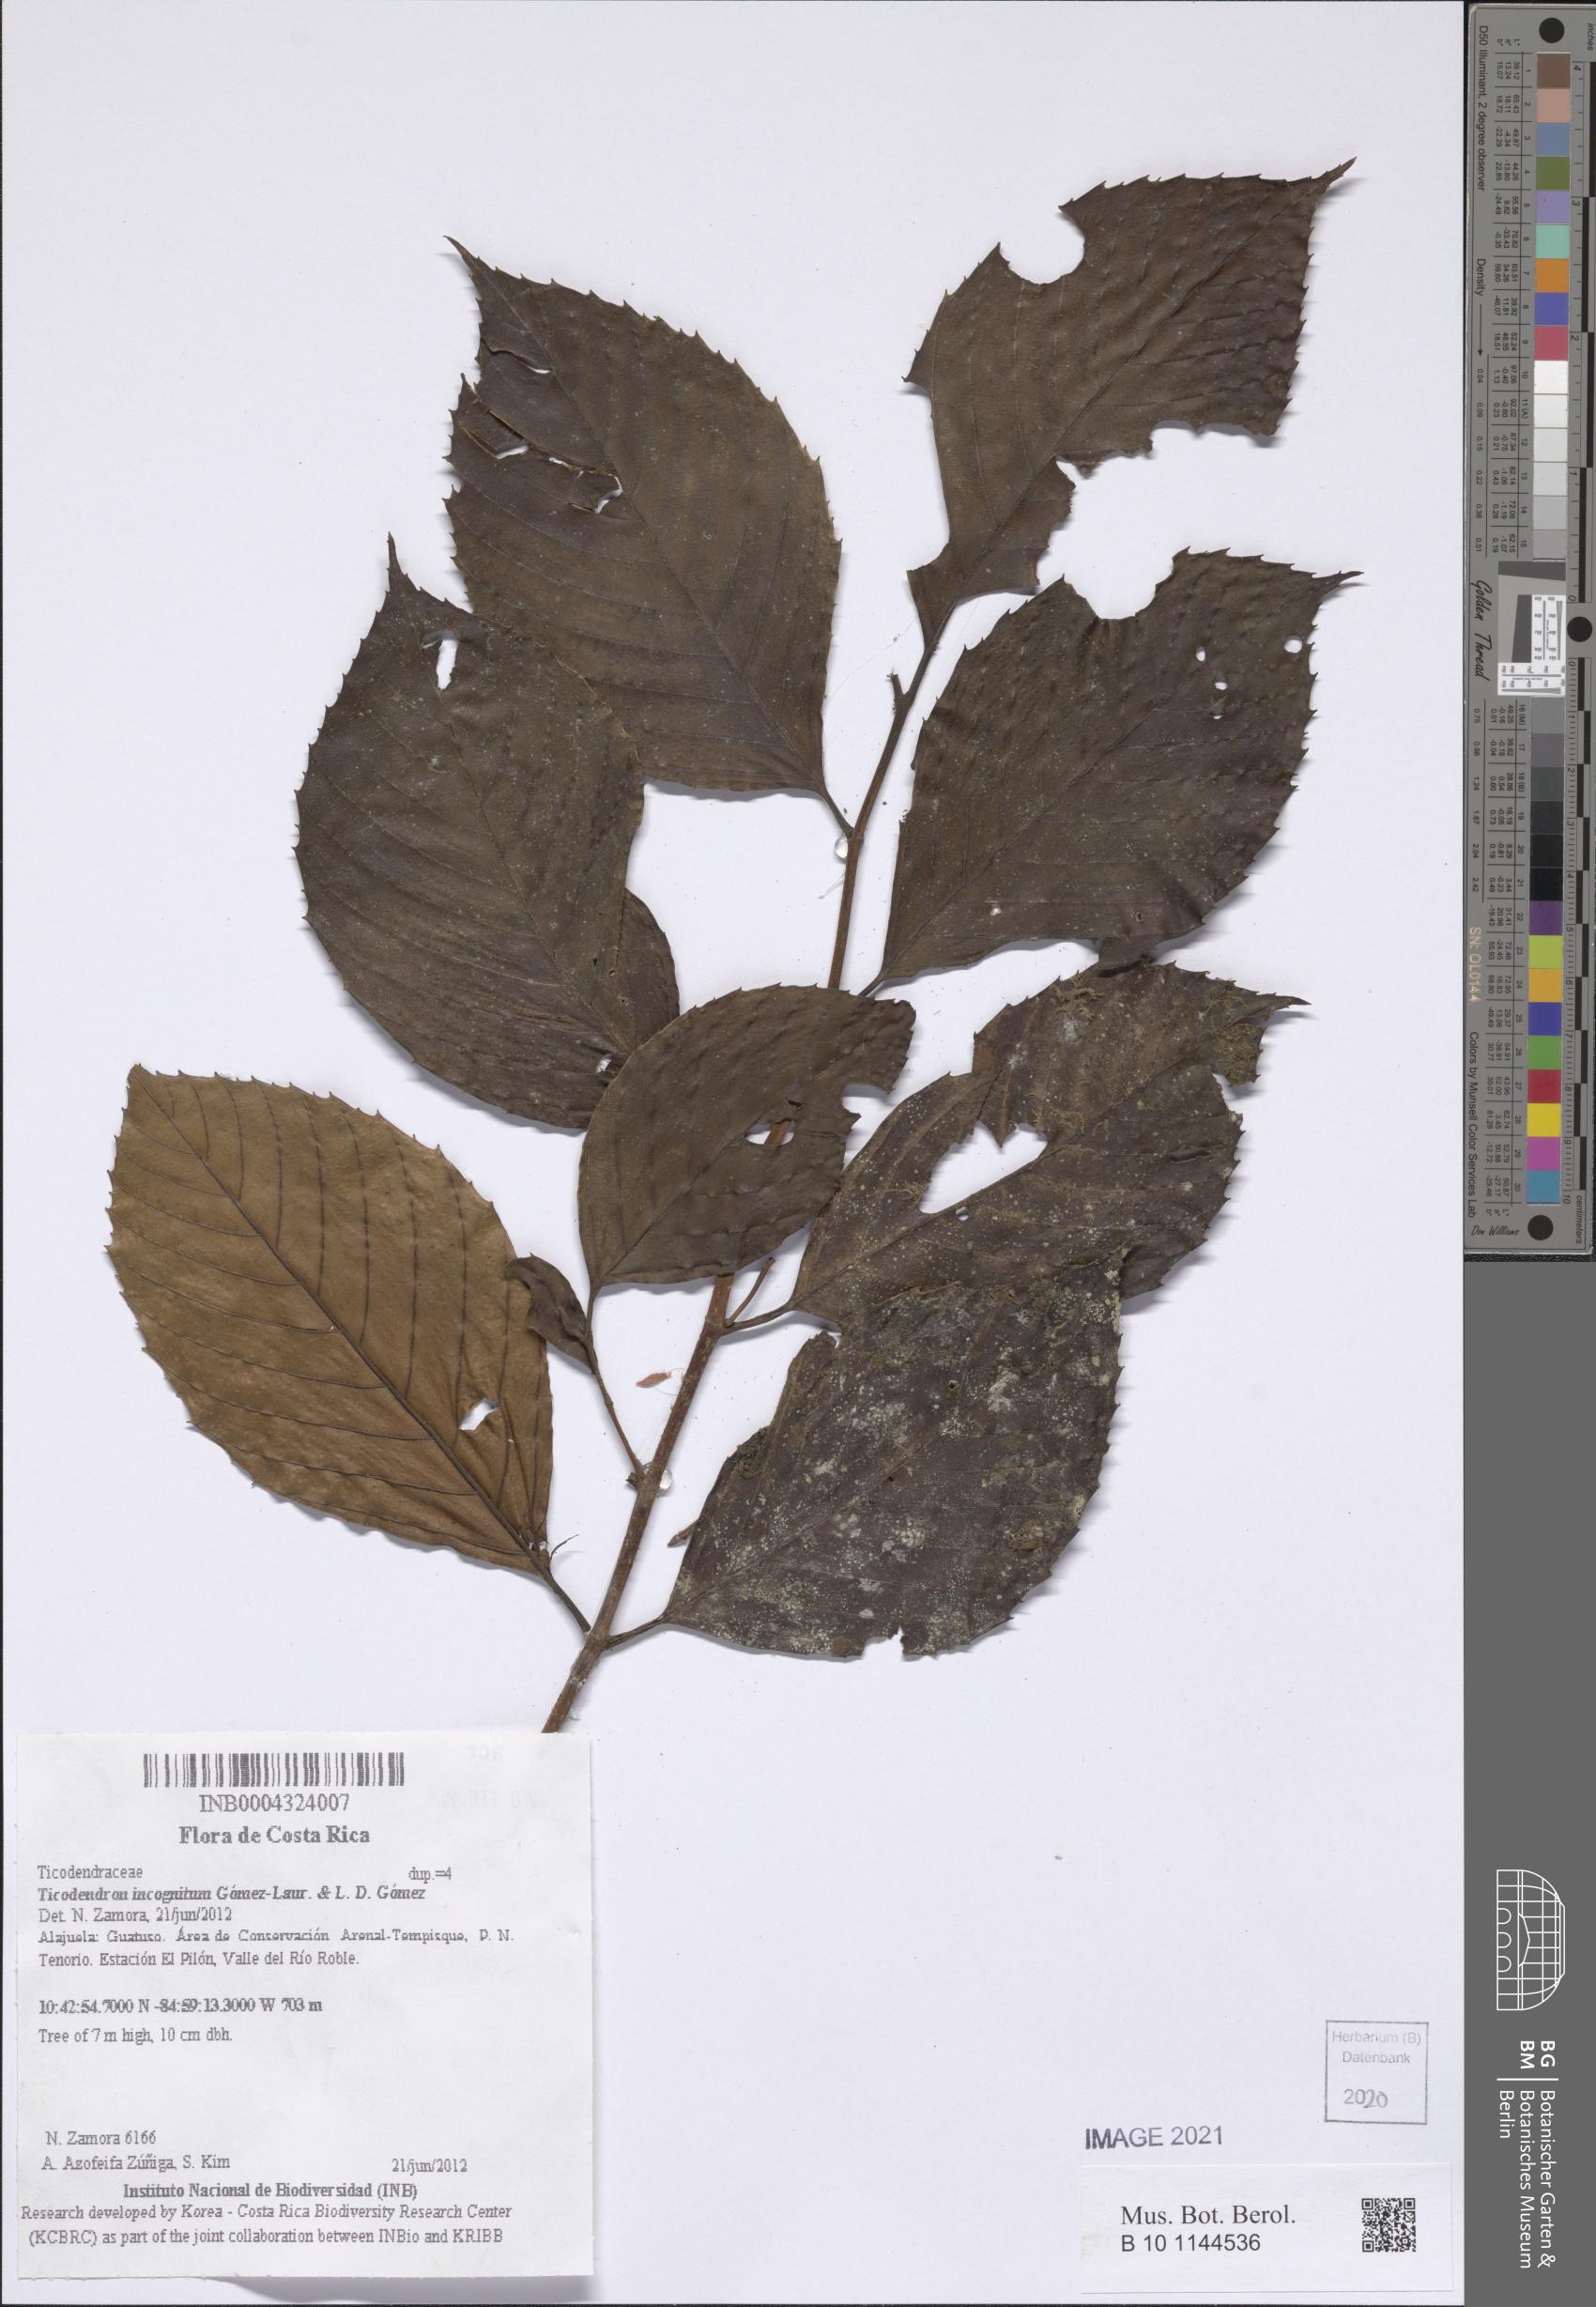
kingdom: Plantae
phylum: Tracheophyta
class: Magnoliopsida
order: Fagales
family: Ticodendraceae
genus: Ticodendron
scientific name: Ticodendron incognitum
